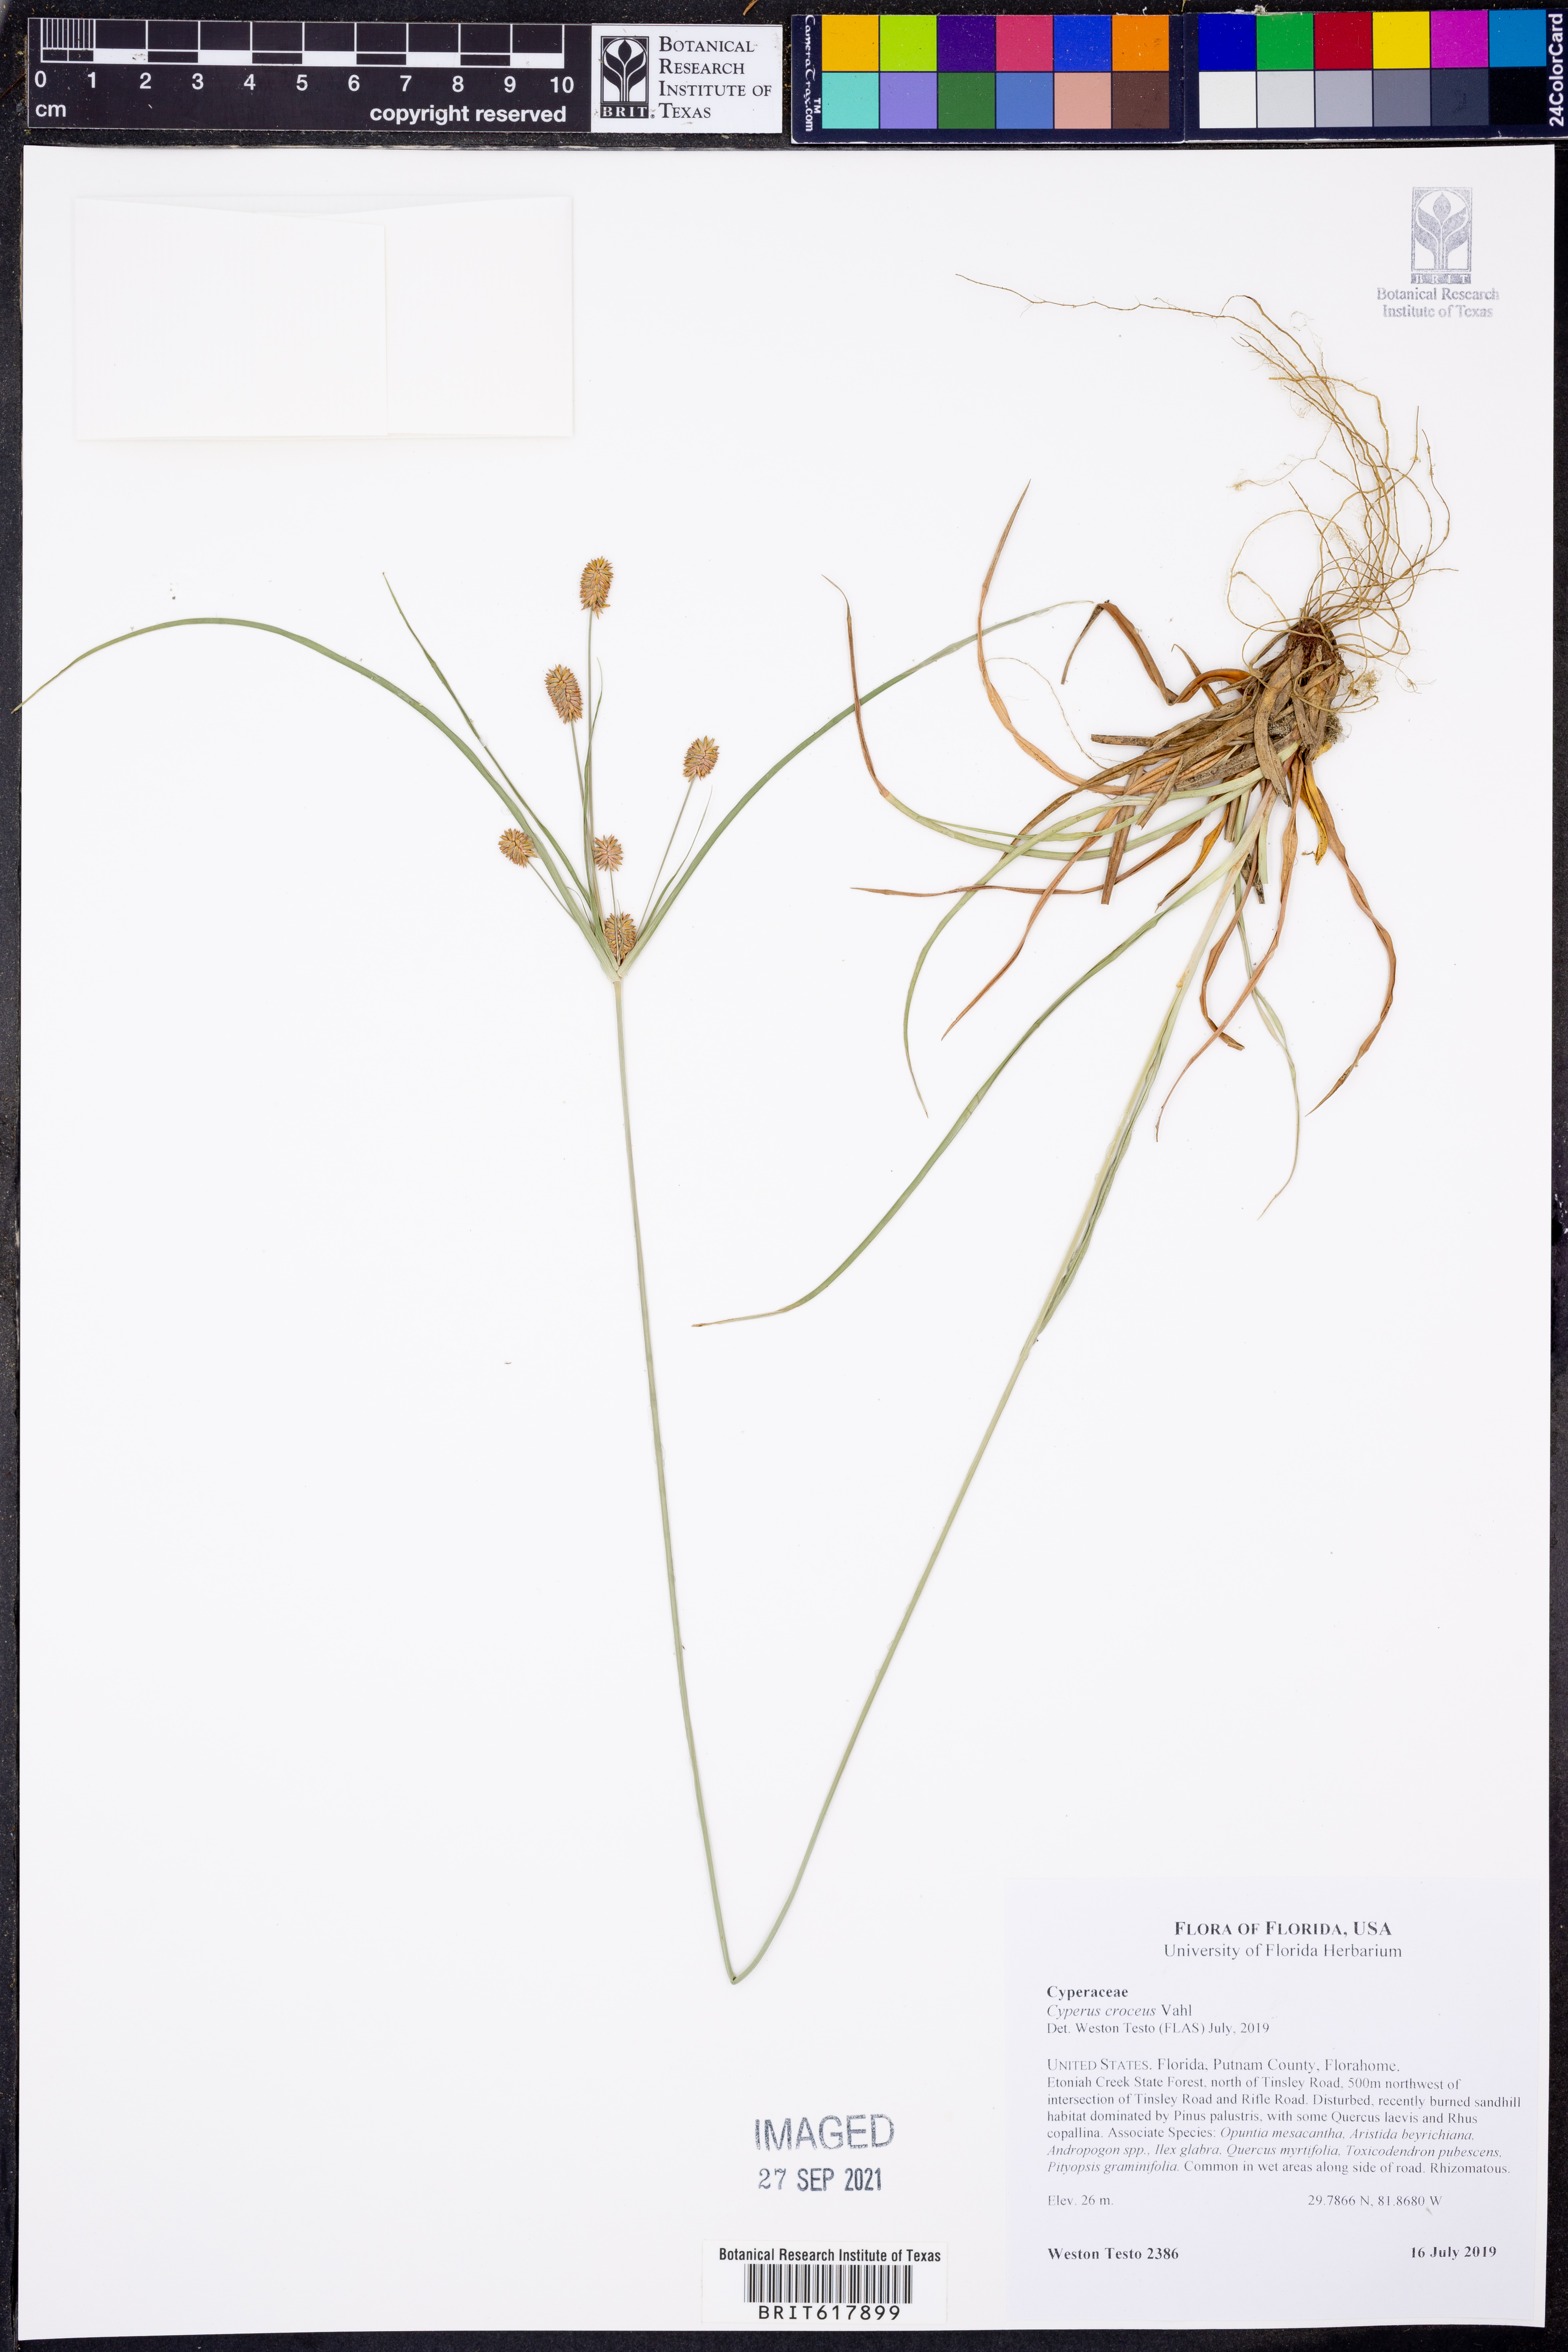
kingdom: Plantae
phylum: Tracheophyta
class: Liliopsida
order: Poales
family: Cyperaceae
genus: Cyperus
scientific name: Cyperus croceus
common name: Baldwin's flatsedge
